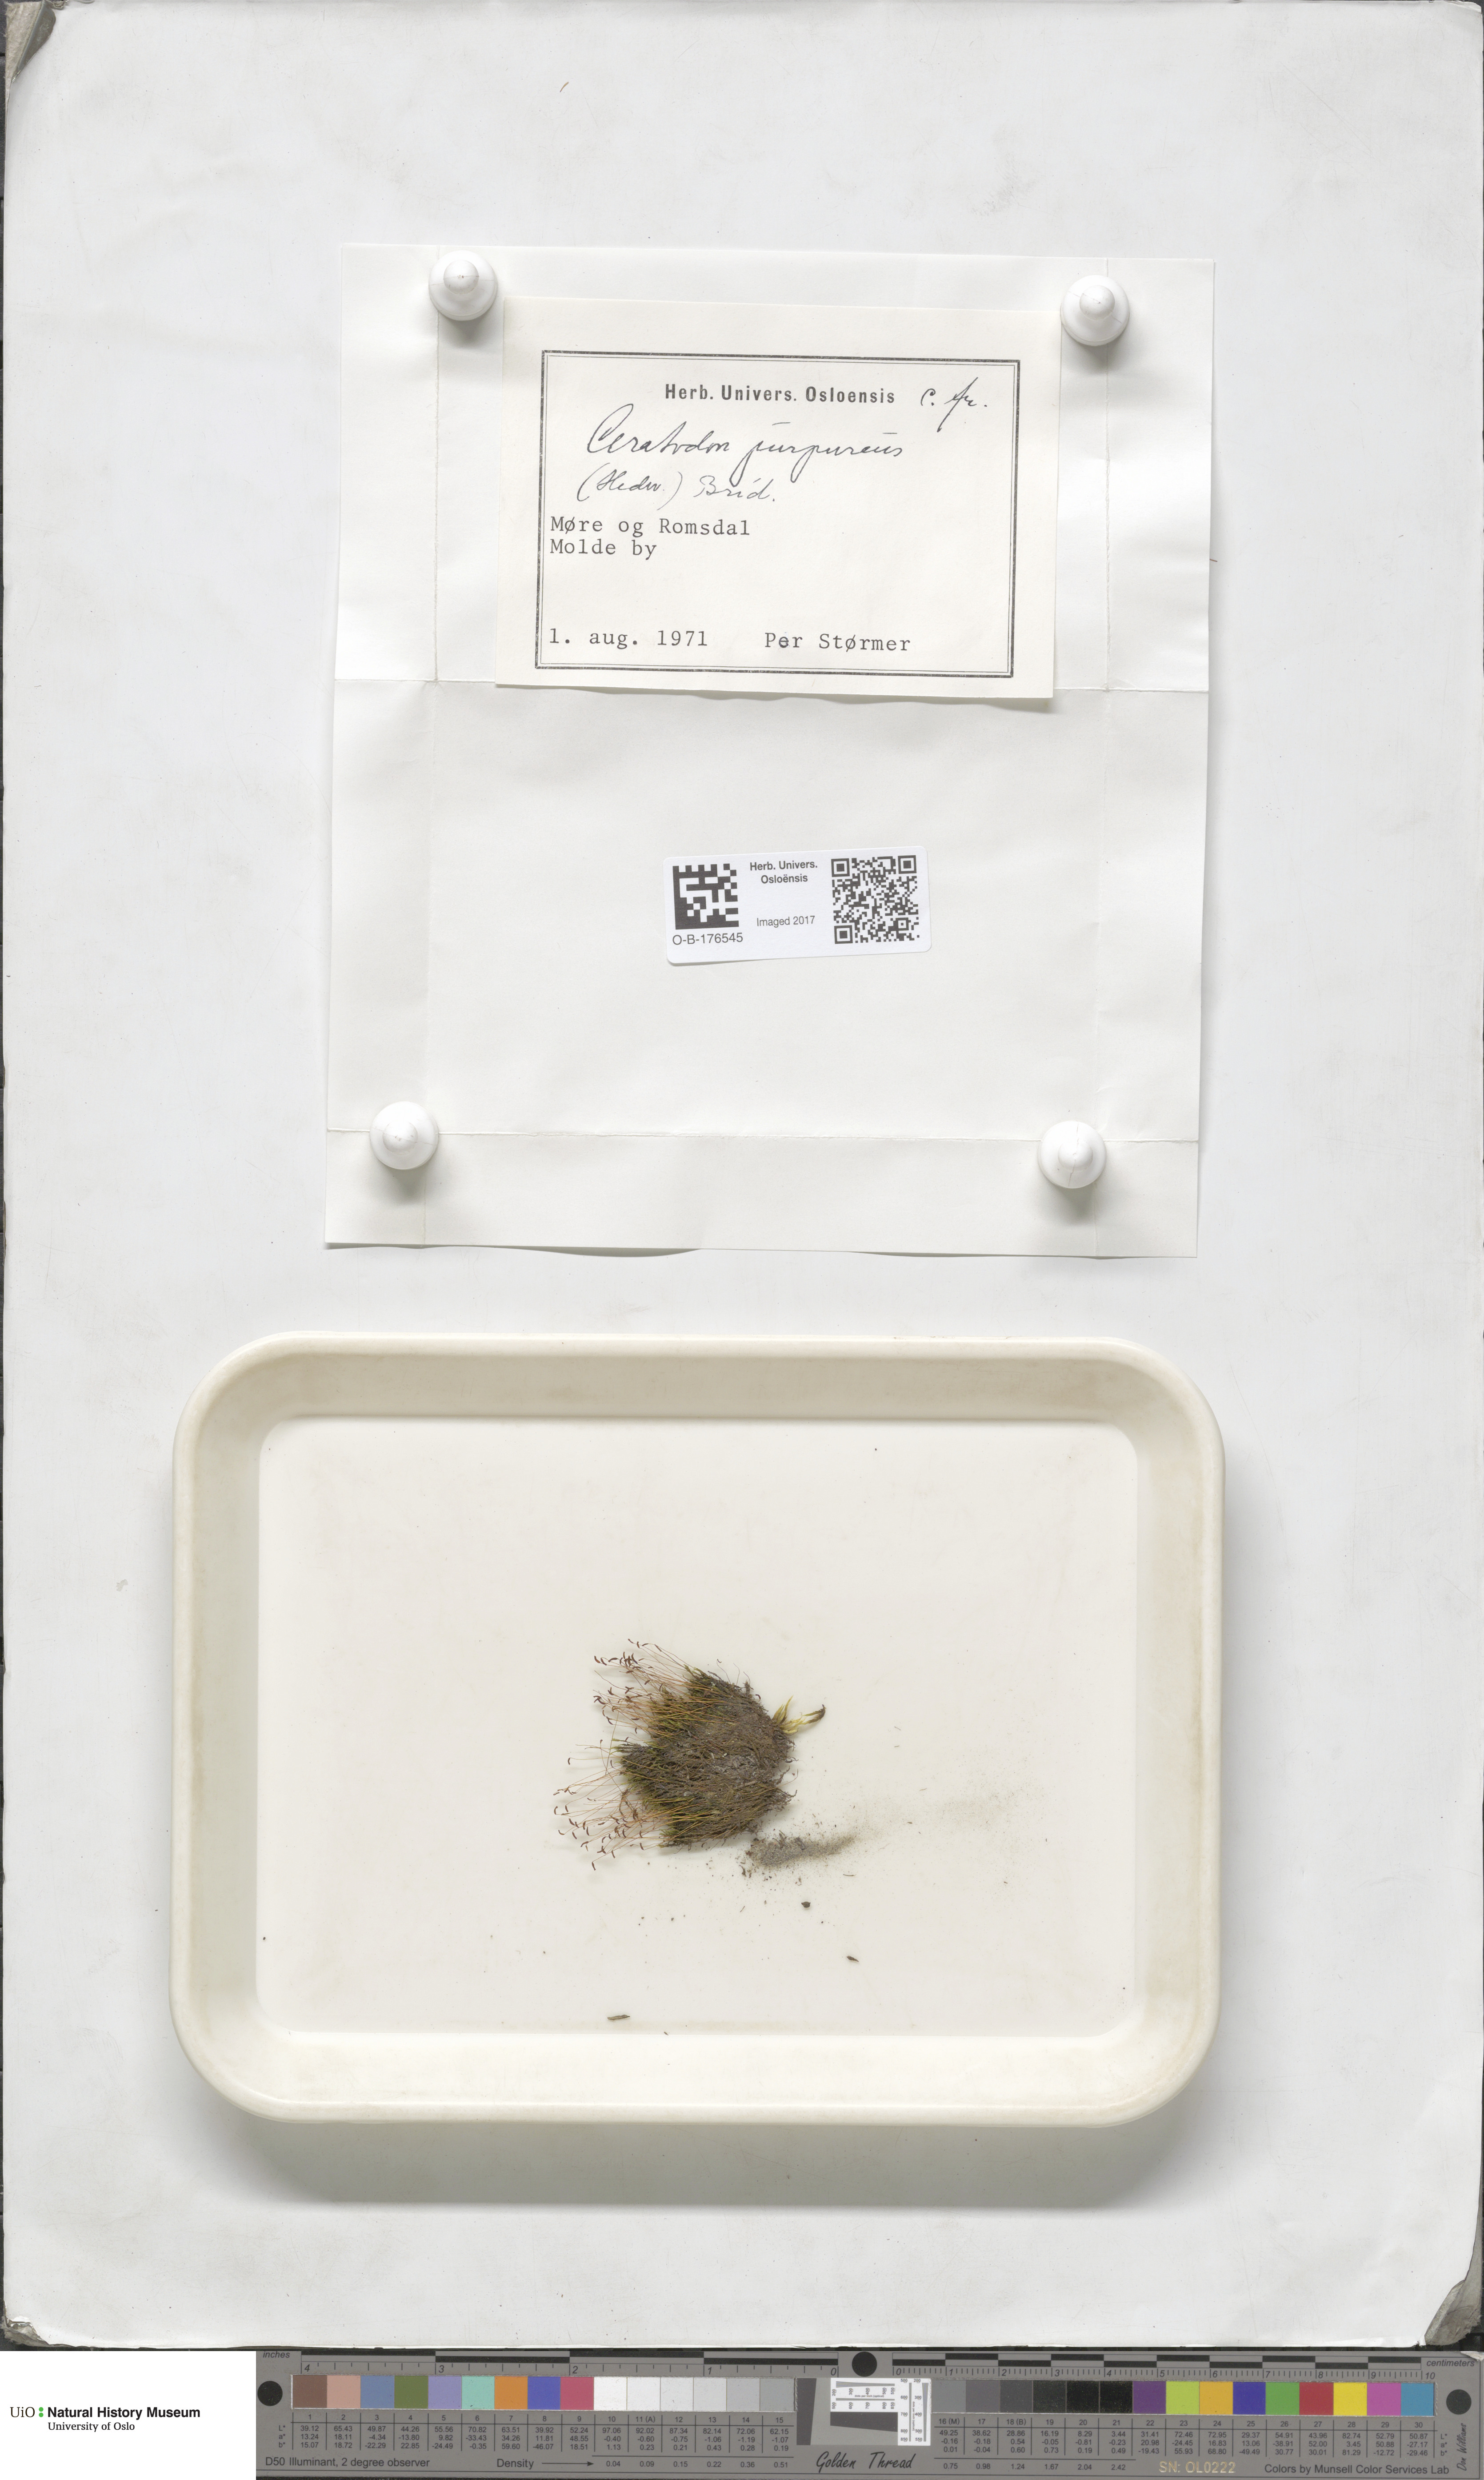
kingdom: Plantae
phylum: Bryophyta
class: Bryopsida
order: Dicranales
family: Ditrichaceae
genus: Ceratodon
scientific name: Ceratodon purpureus
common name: Redshank
